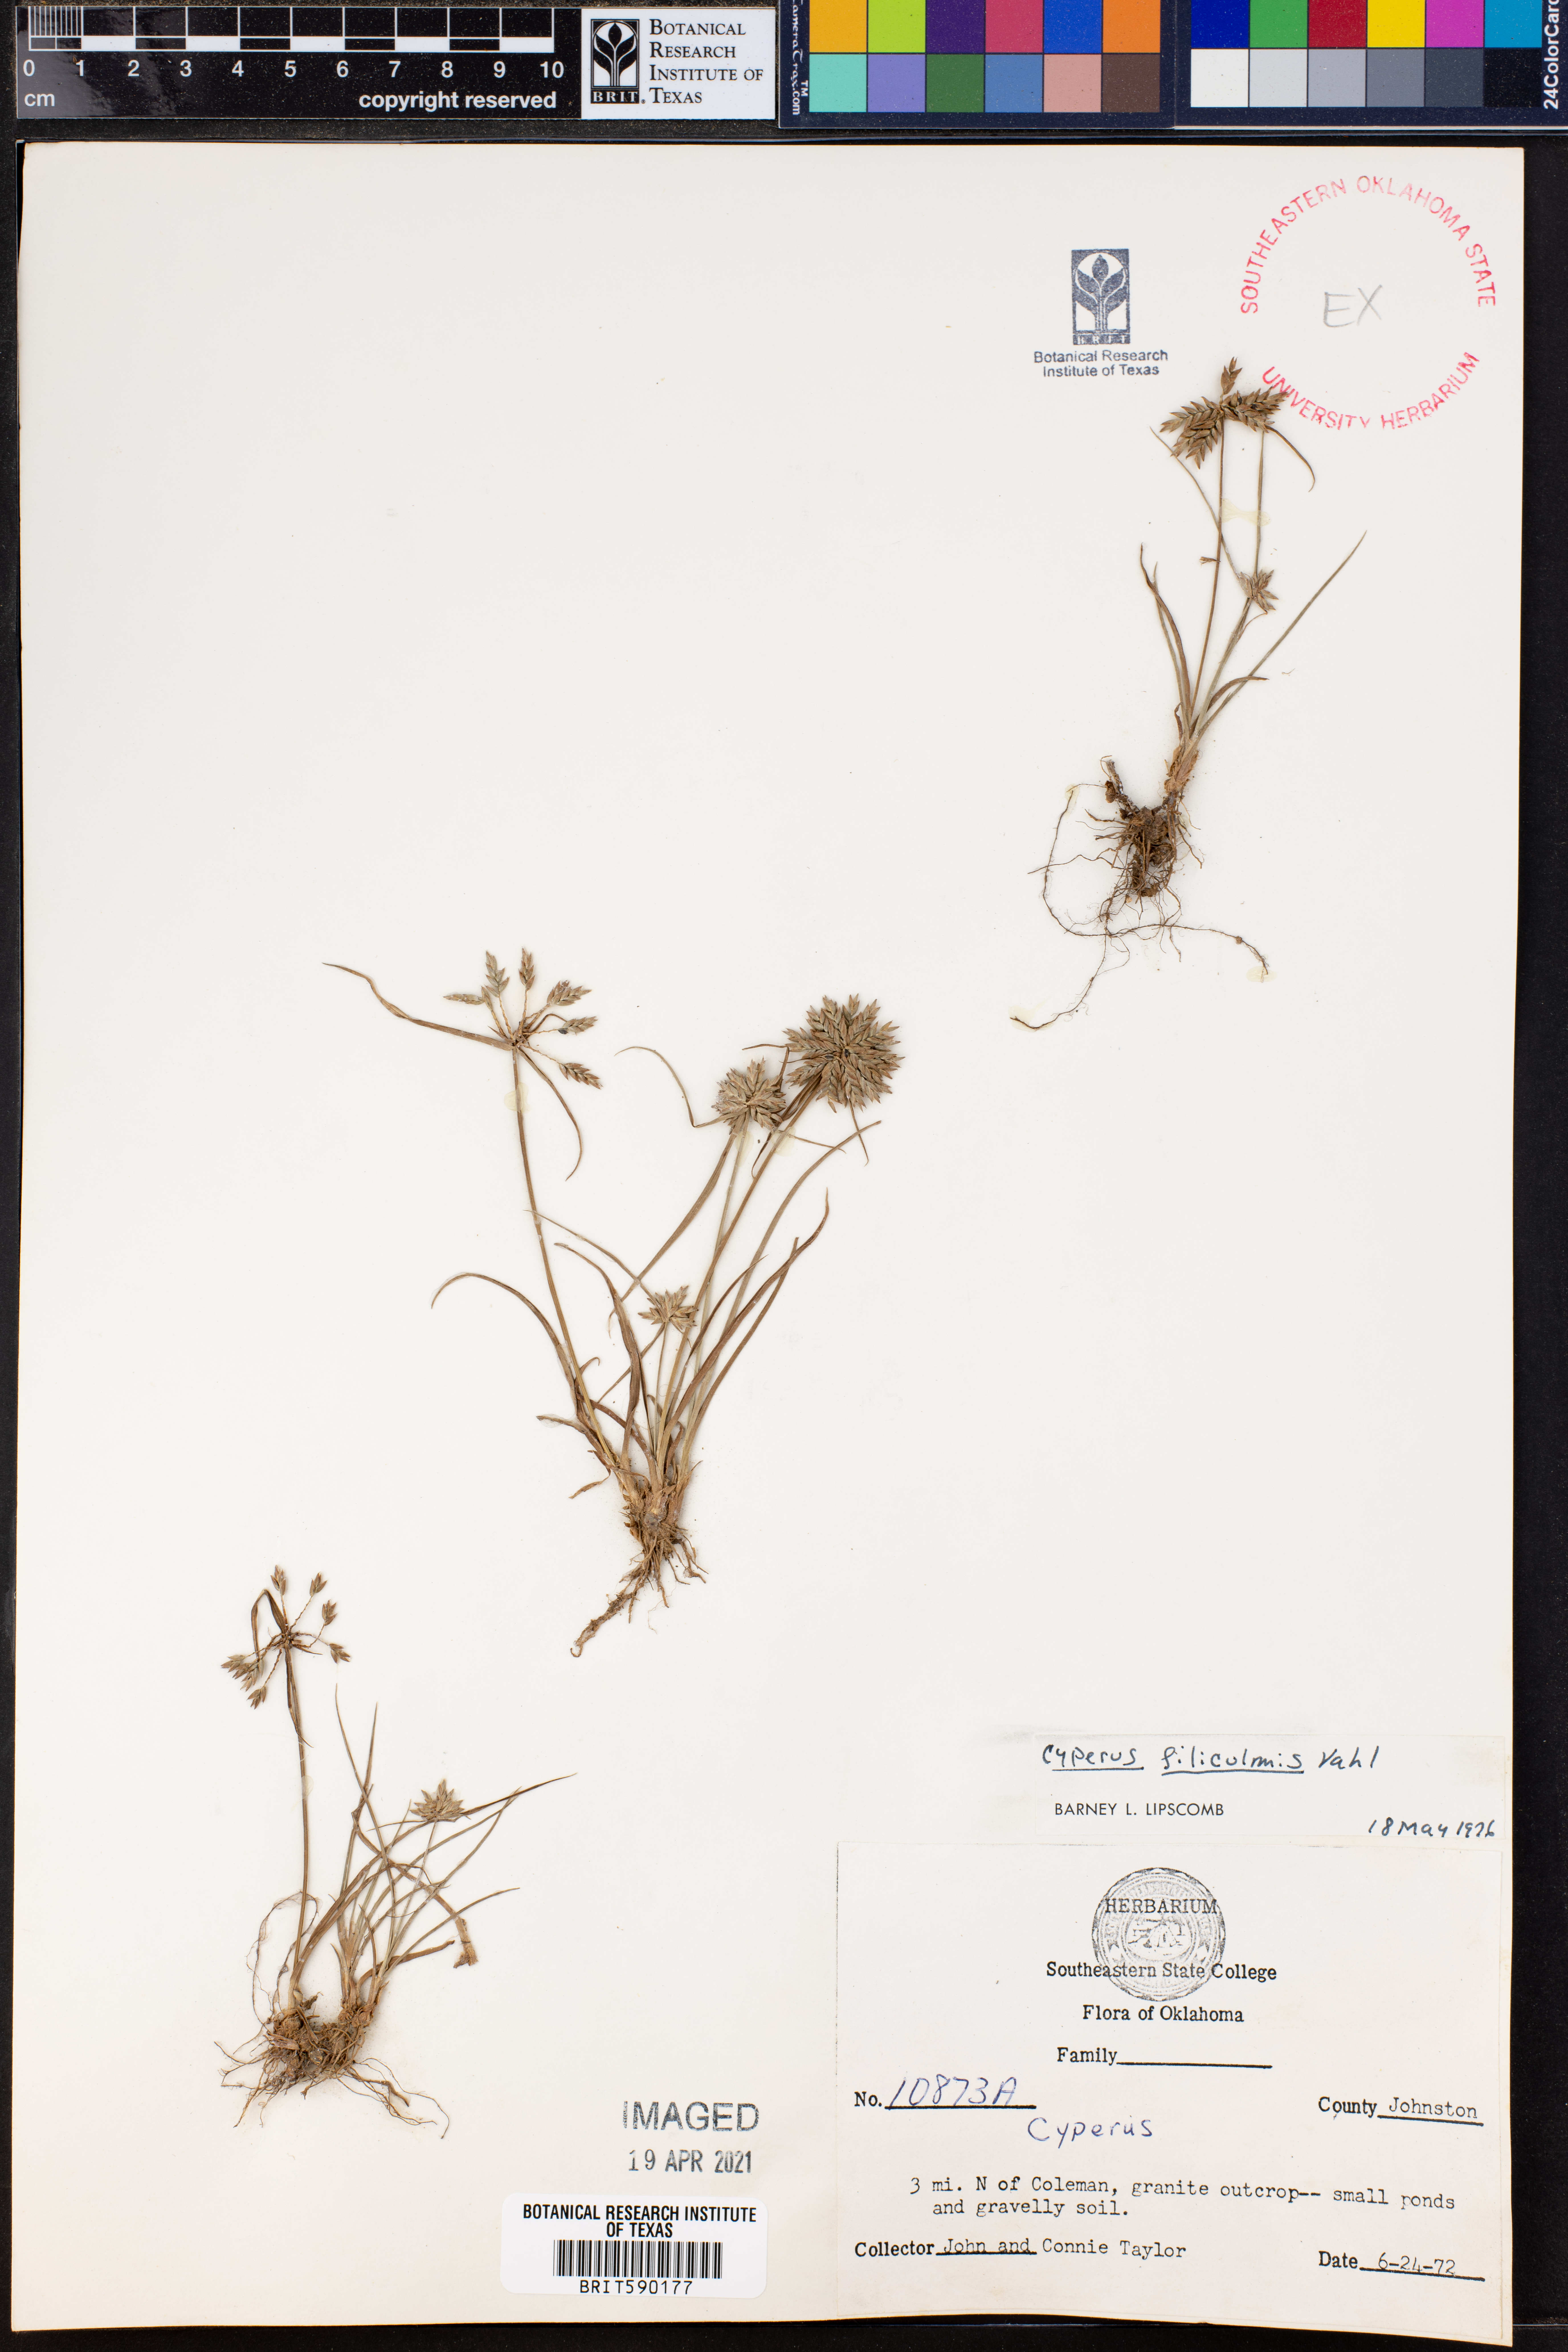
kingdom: Plantae
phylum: Tracheophyta
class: Liliopsida
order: Poales
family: Cyperaceae
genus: Cyperus
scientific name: Cyperus lanceolatus
